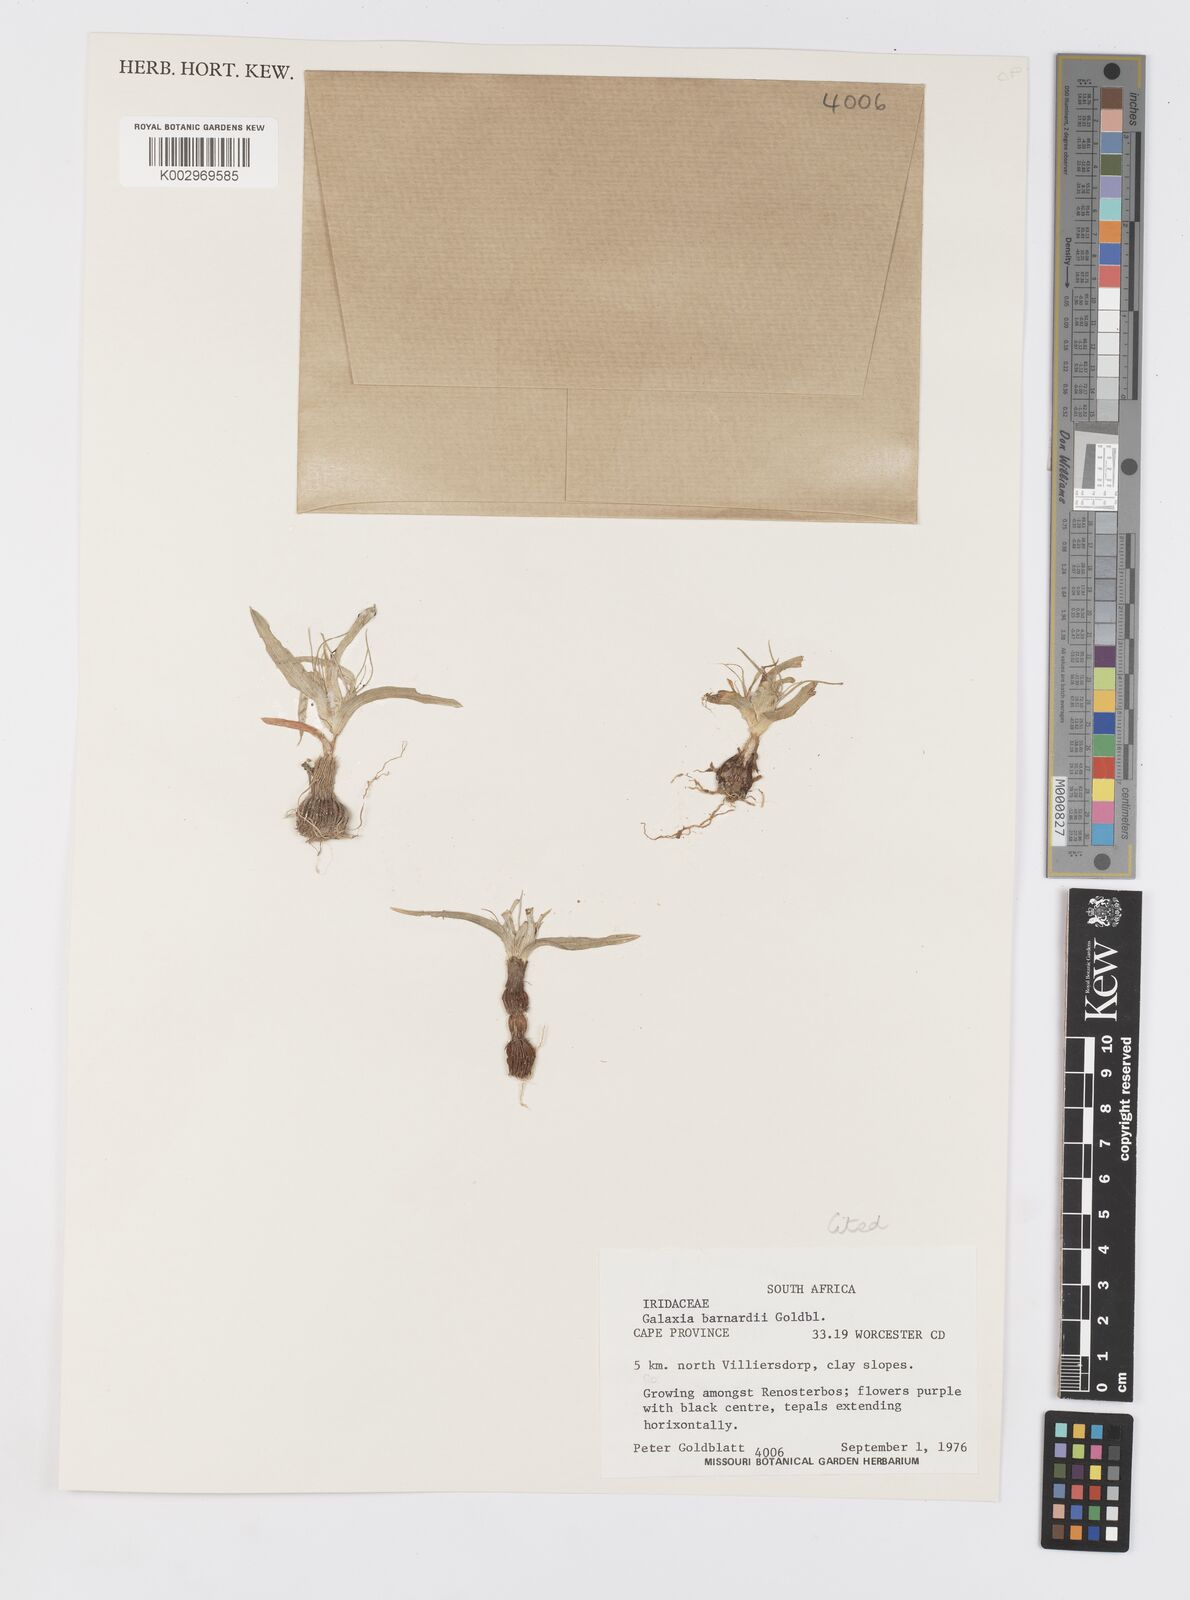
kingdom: Plantae
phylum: Tracheophyta
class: Liliopsida
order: Asparagales
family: Iridaceae
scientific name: Iridaceae
